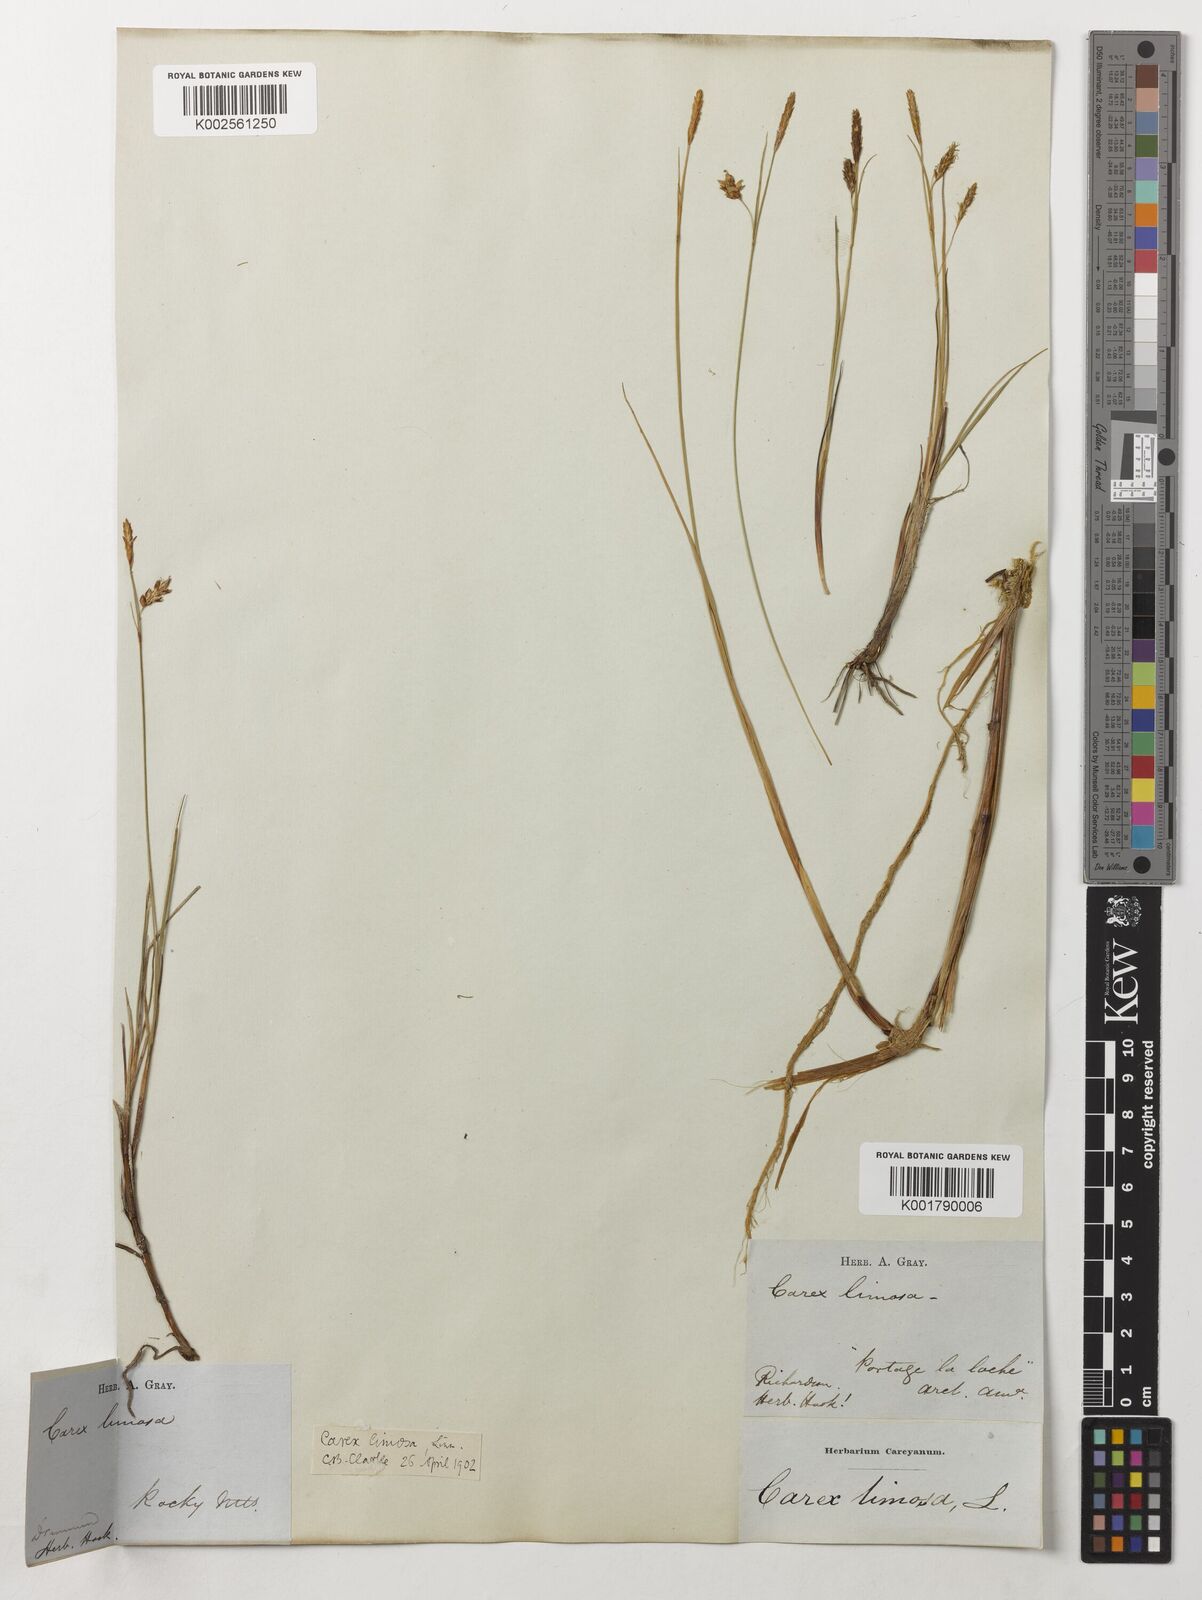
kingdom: Plantae
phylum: Tracheophyta
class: Liliopsida
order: Poales
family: Cyperaceae
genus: Carex
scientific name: Carex limosa
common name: Bog sedge
